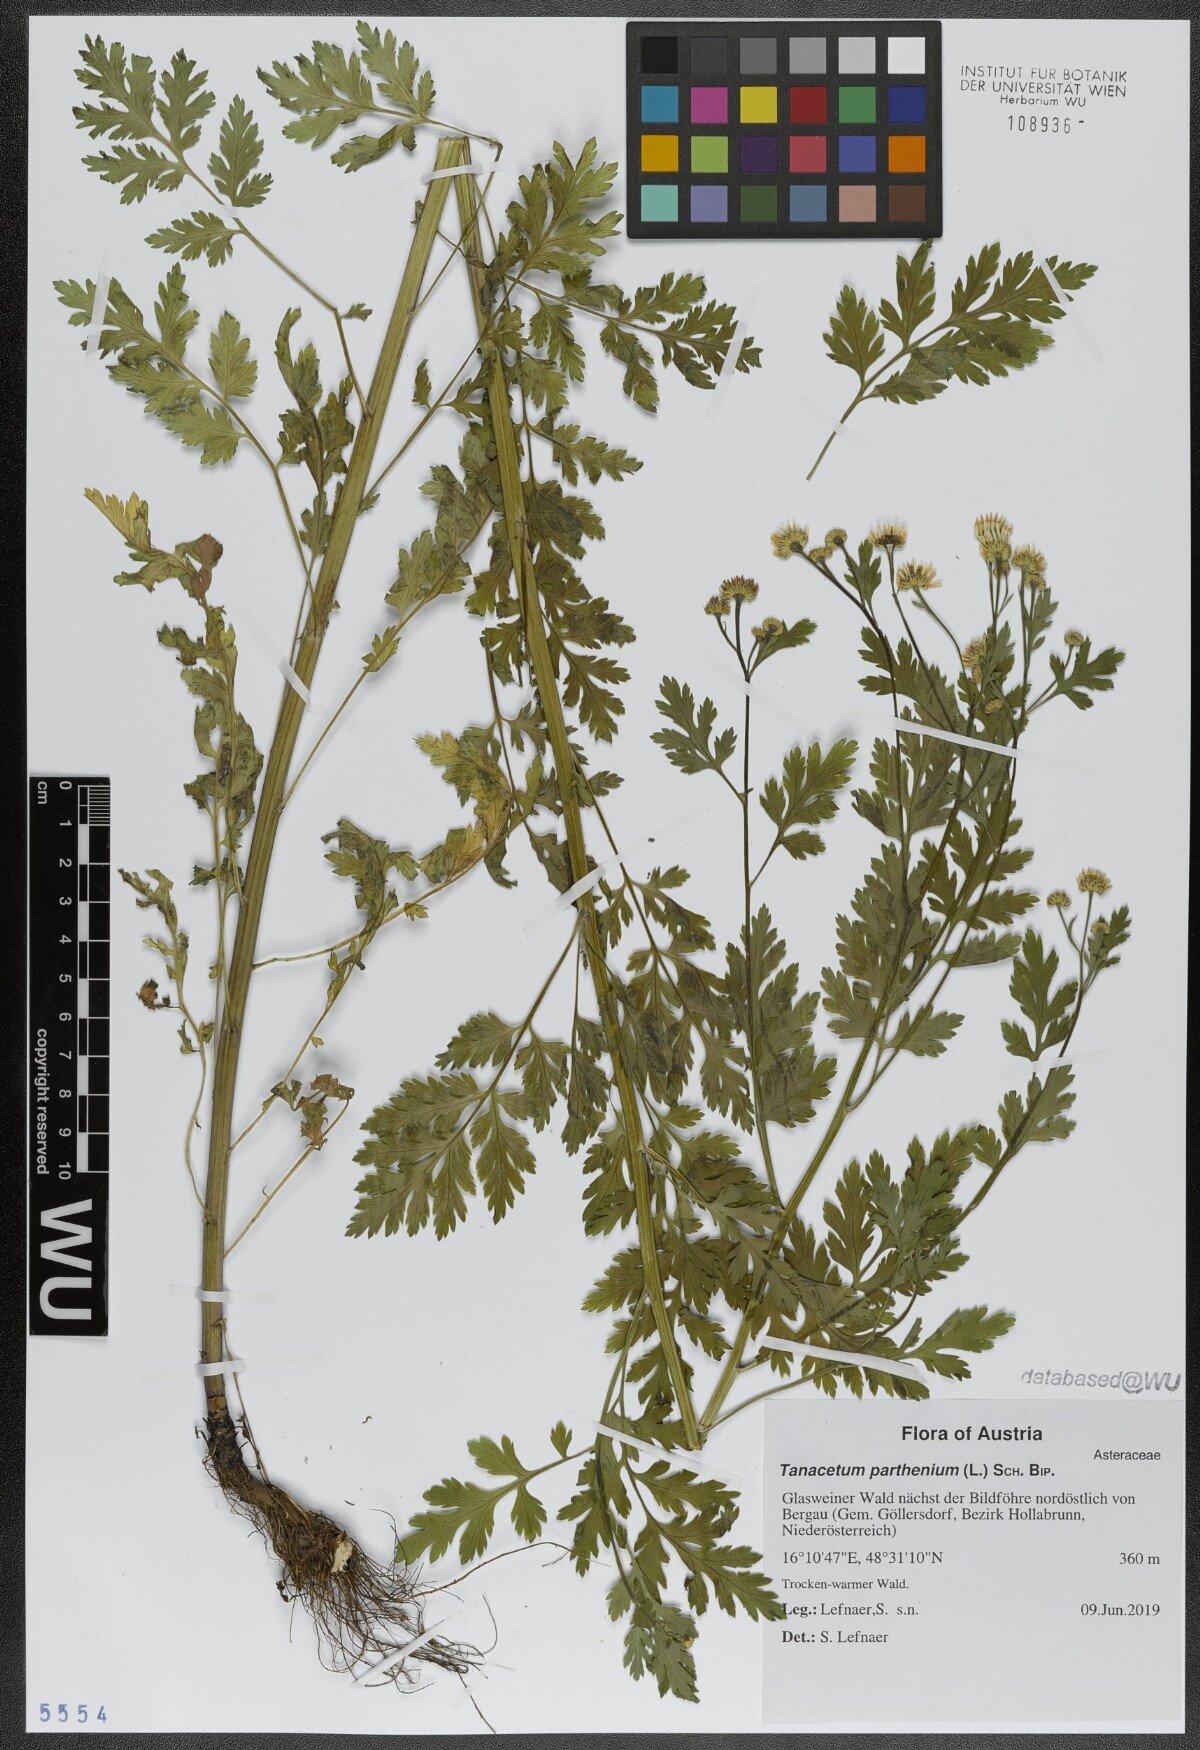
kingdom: Plantae
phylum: Tracheophyta
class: Magnoliopsida
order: Asterales
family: Asteraceae
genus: Tanacetum
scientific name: Tanacetum parthenium
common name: Feverfew
